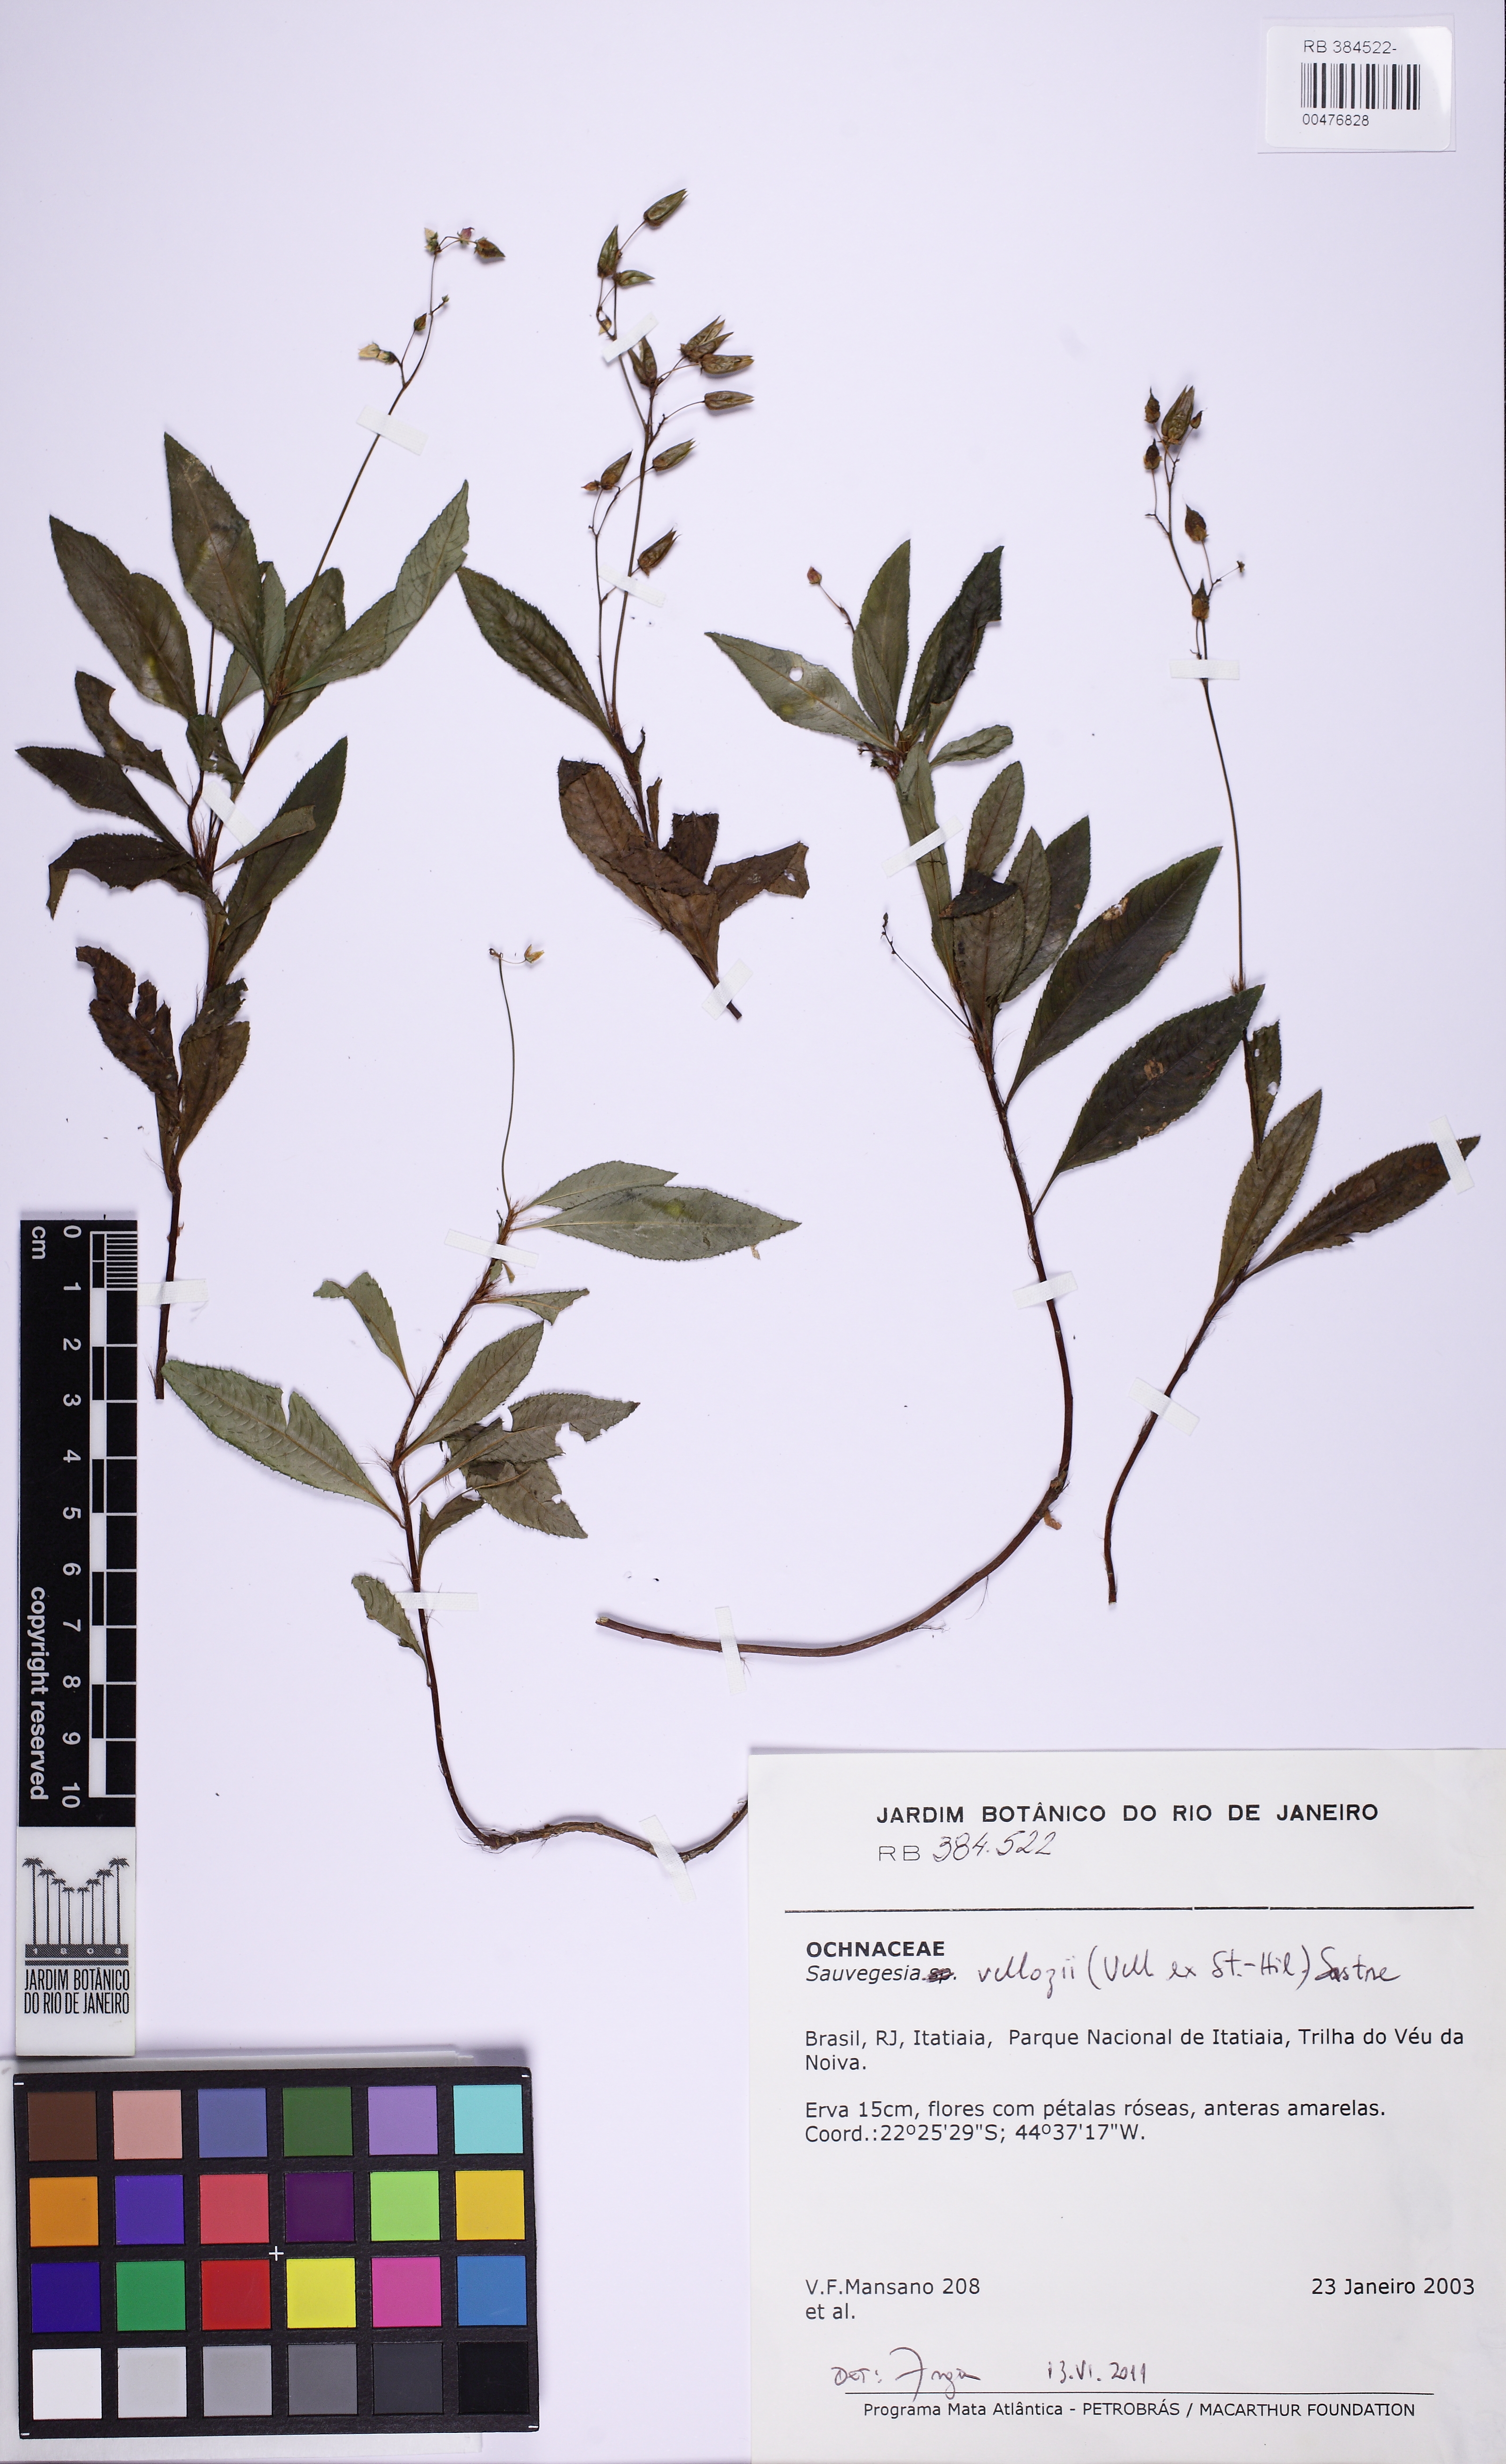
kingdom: Plantae
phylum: Tracheophyta
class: Magnoliopsida
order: Malpighiales
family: Ochnaceae
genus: Sauvagesia
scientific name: Sauvagesia
